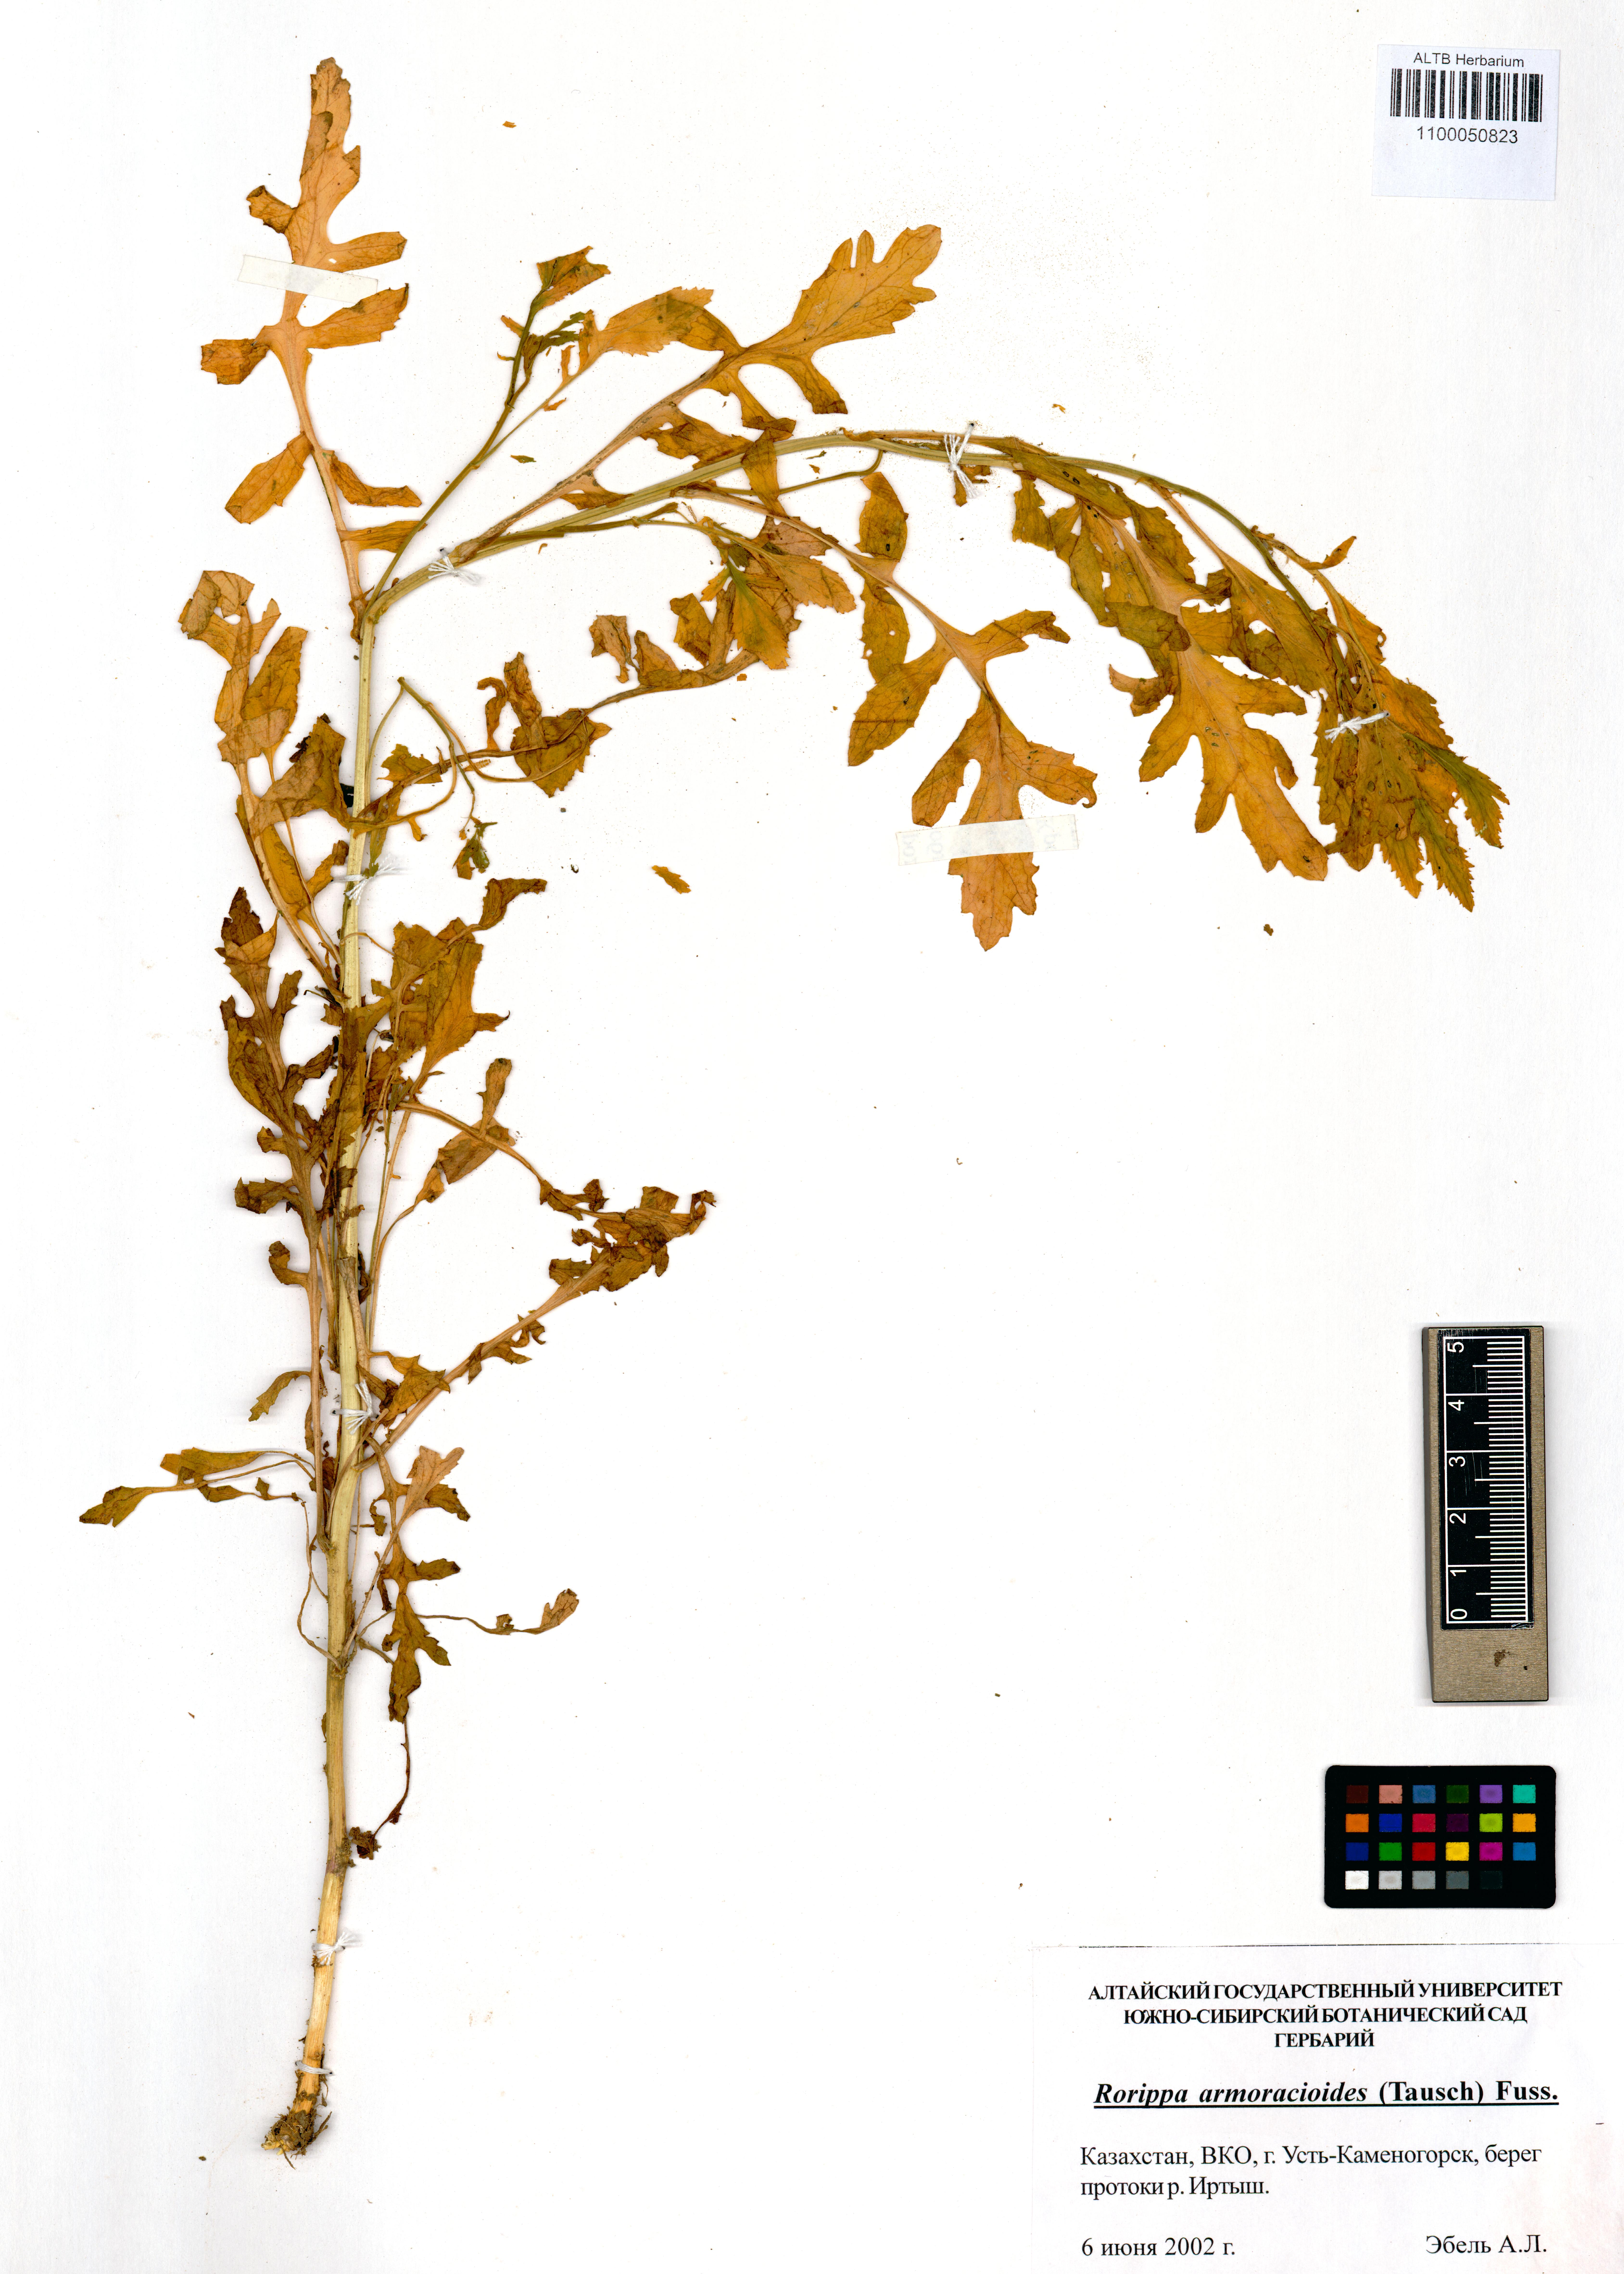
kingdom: Plantae
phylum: Tracheophyta
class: Magnoliopsida
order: Brassicales
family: Brassicaceae
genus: Rorippa
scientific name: Rorippa anceps
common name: Rorippa
